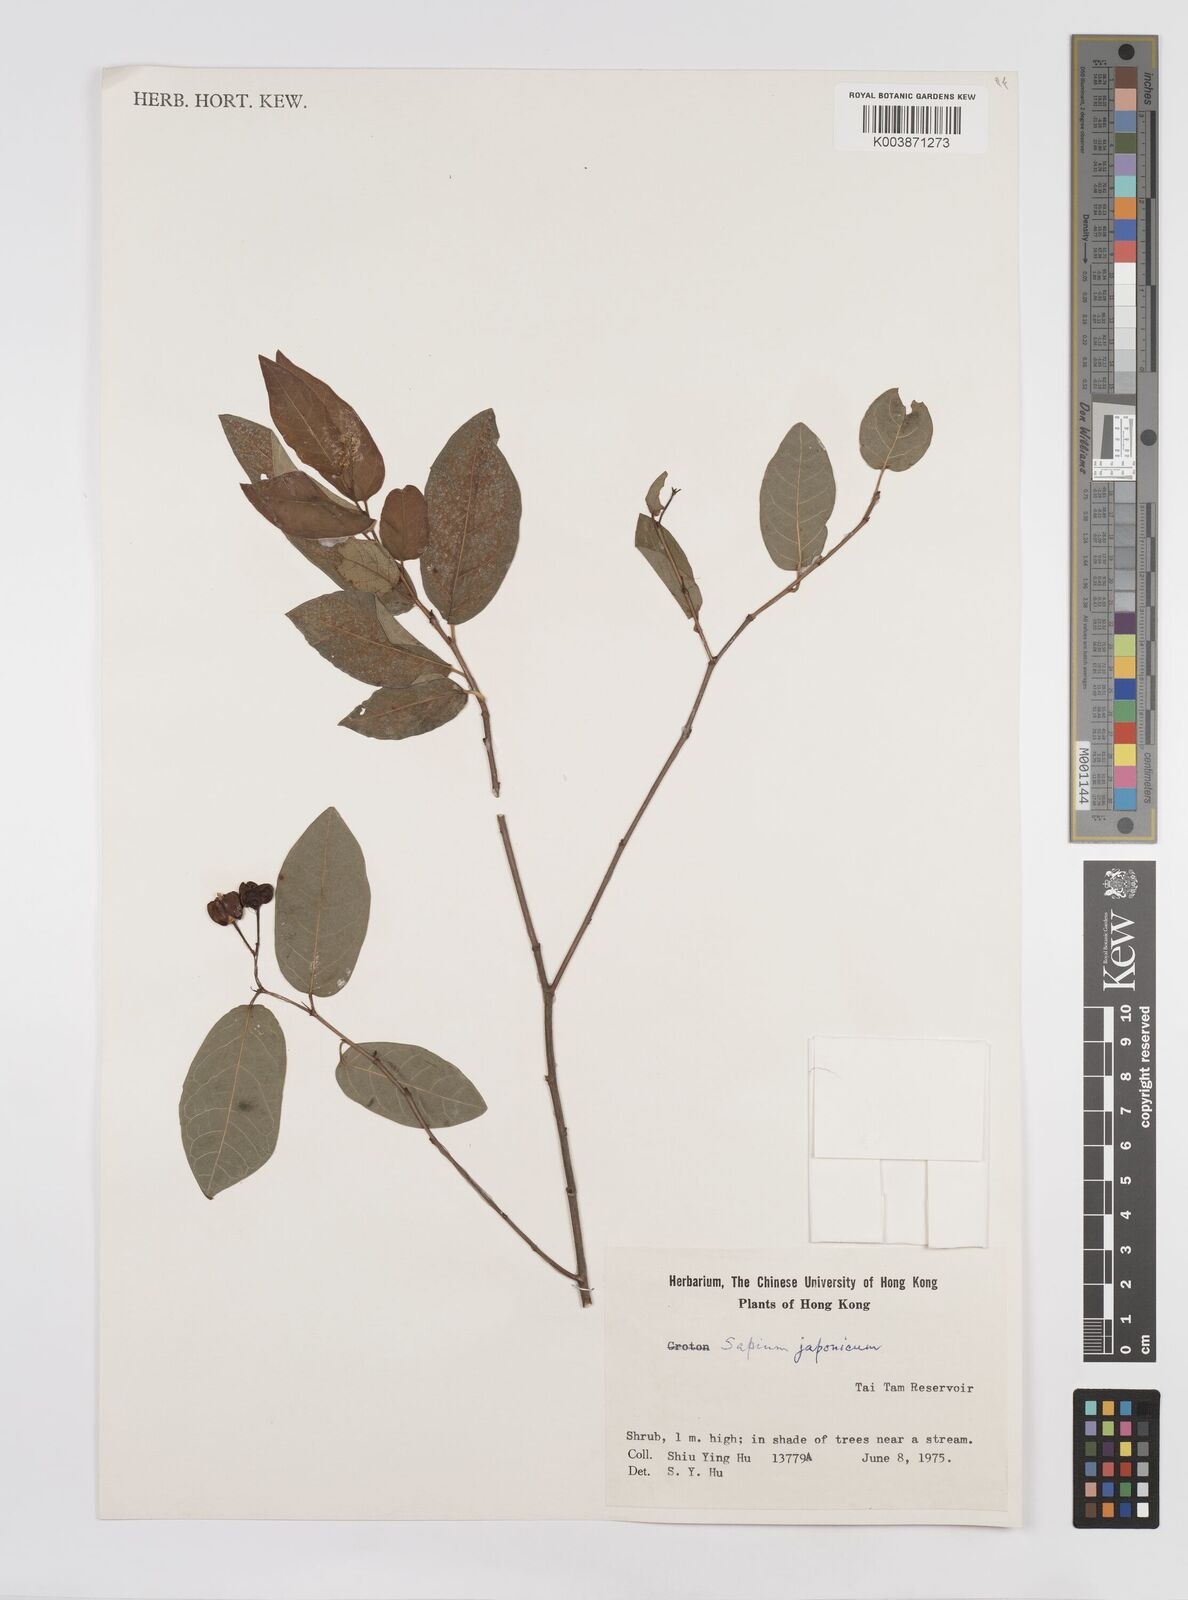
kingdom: Plantae
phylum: Tracheophyta
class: Magnoliopsida
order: Malpighiales
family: Euphorbiaceae
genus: Neoshirakia
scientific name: Neoshirakia japonica
